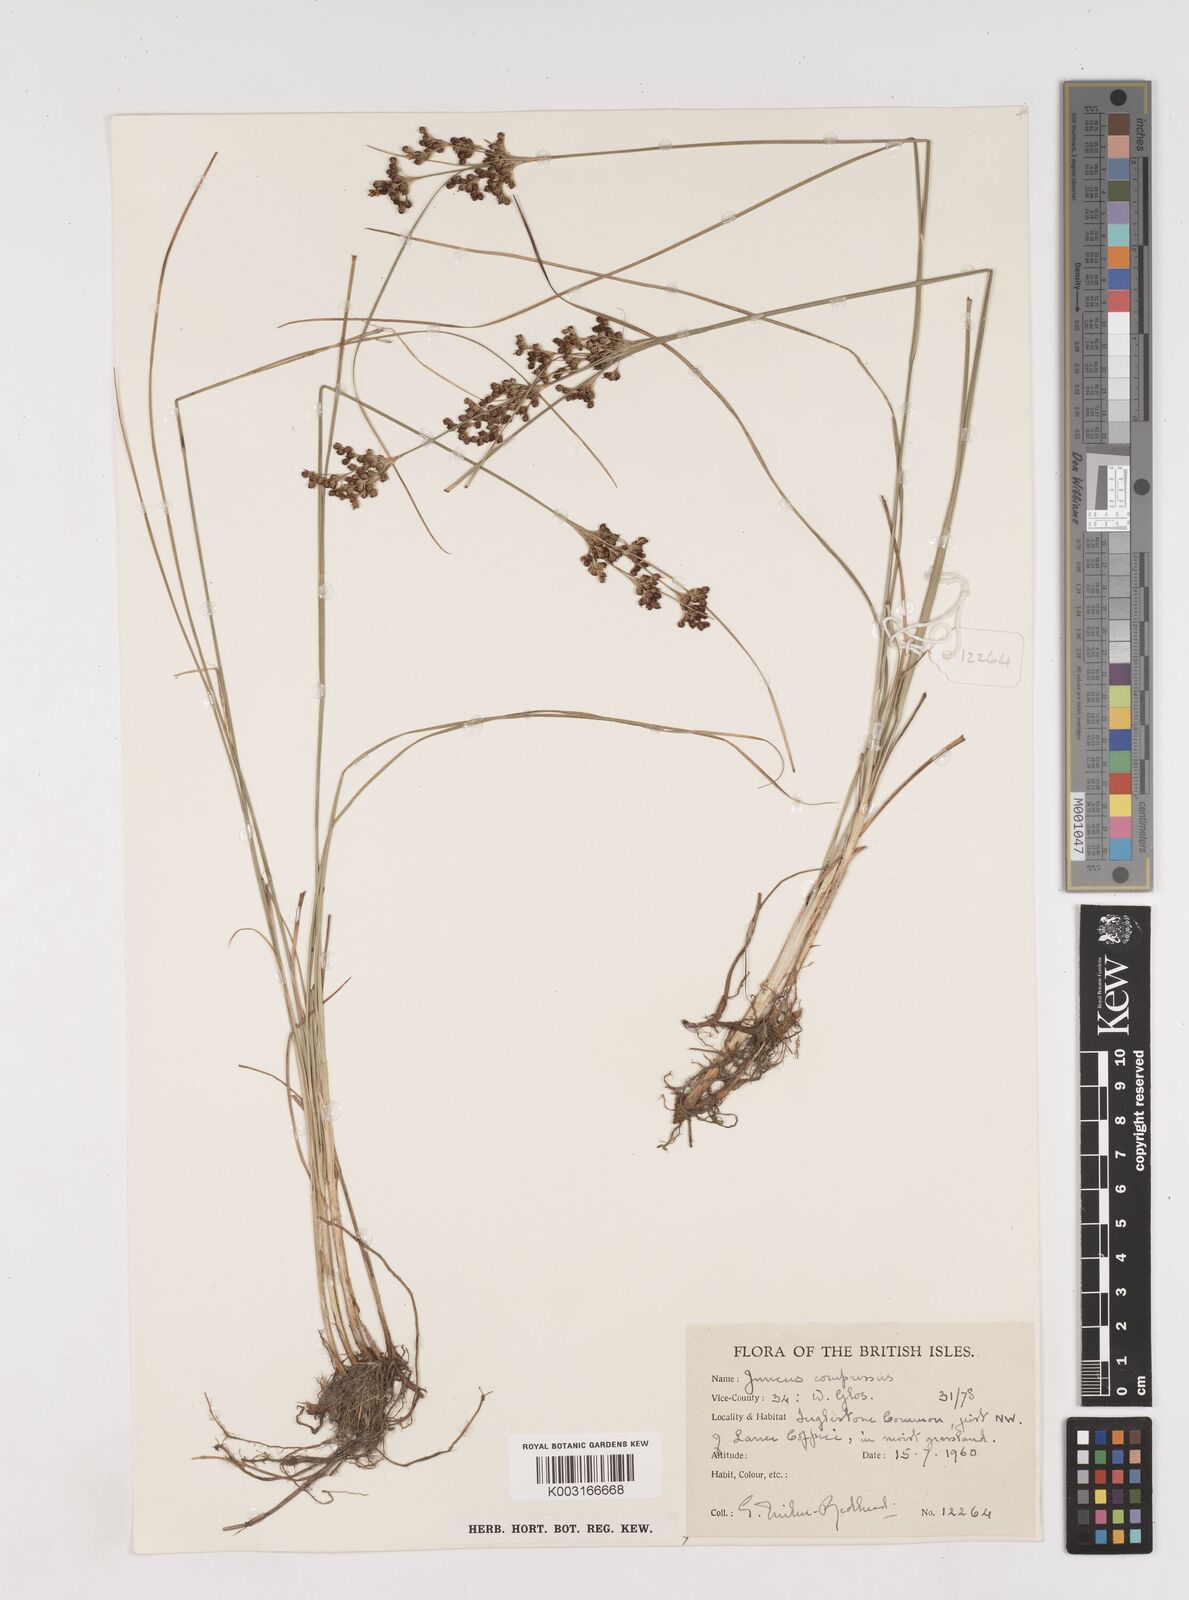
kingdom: Plantae
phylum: Tracheophyta
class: Liliopsida
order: Poales
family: Juncaceae
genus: Juncus
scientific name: Juncus compressus
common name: Round-fruited rush
